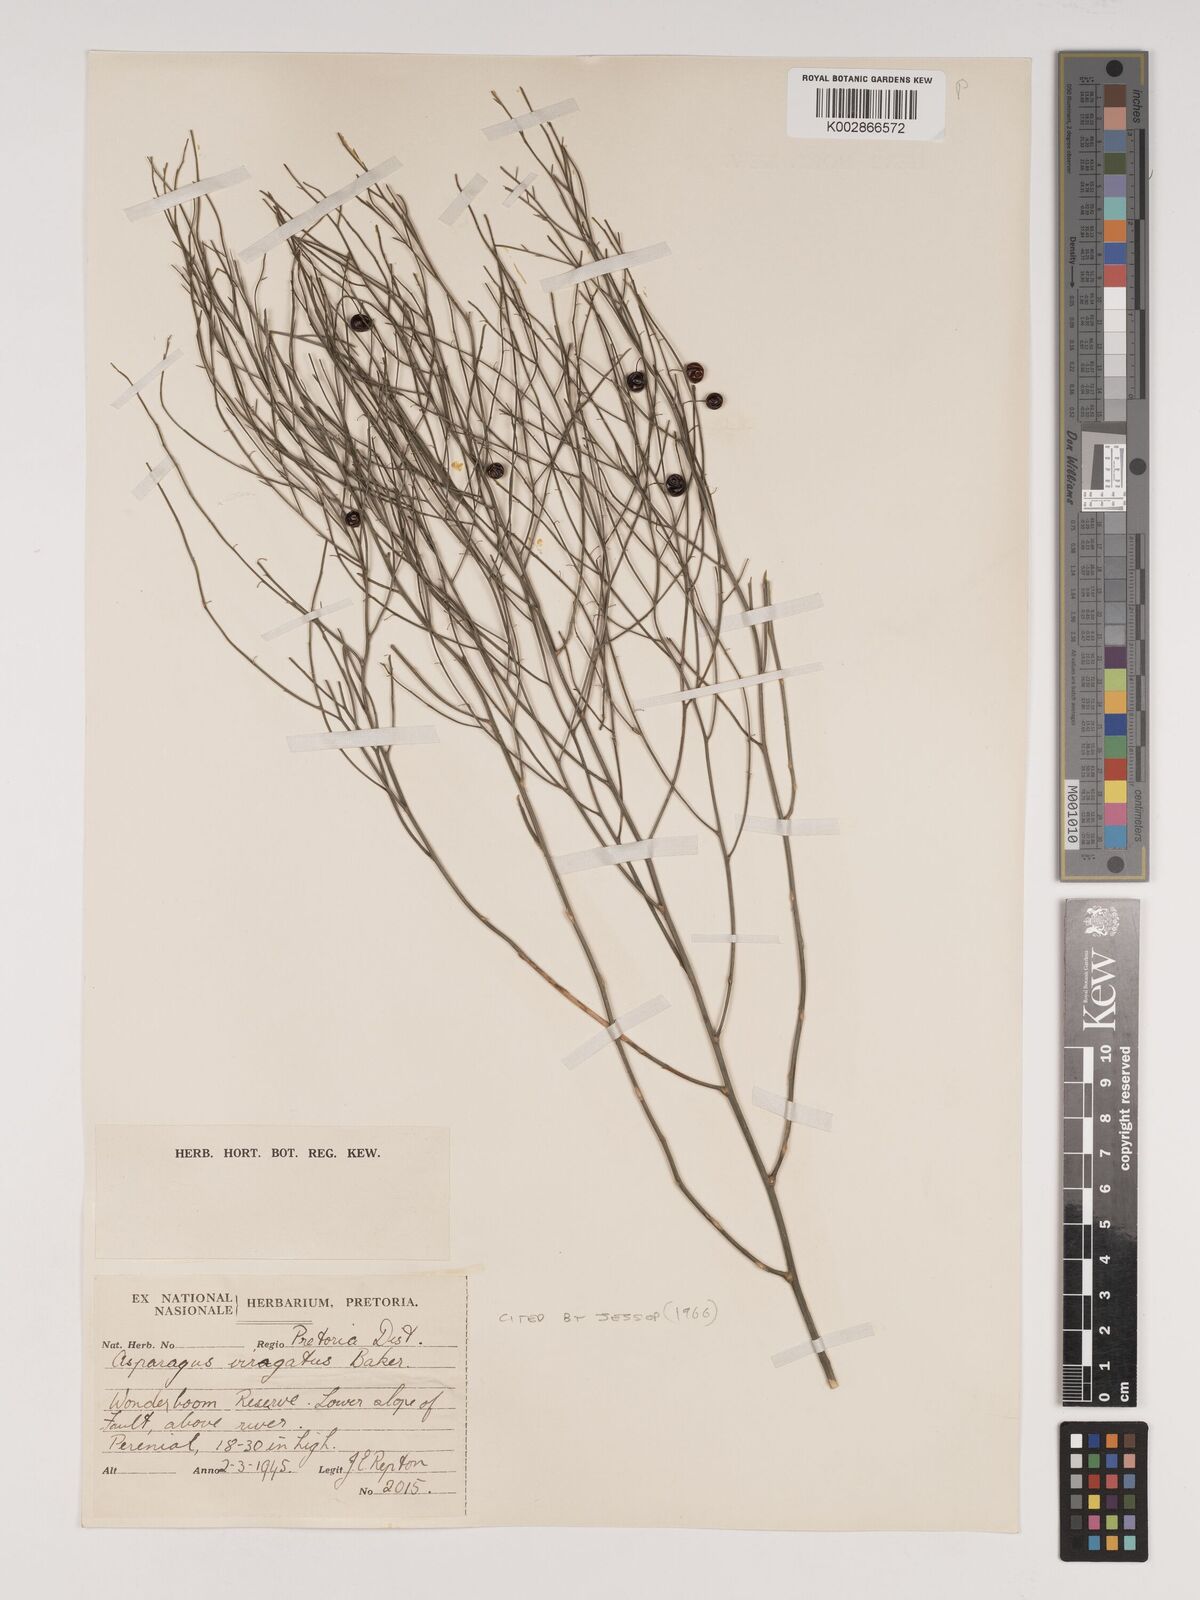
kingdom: Plantae
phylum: Tracheophyta
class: Liliopsida
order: Asparagales
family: Asparagaceae
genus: Asparagus
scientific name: Asparagus virgatus
